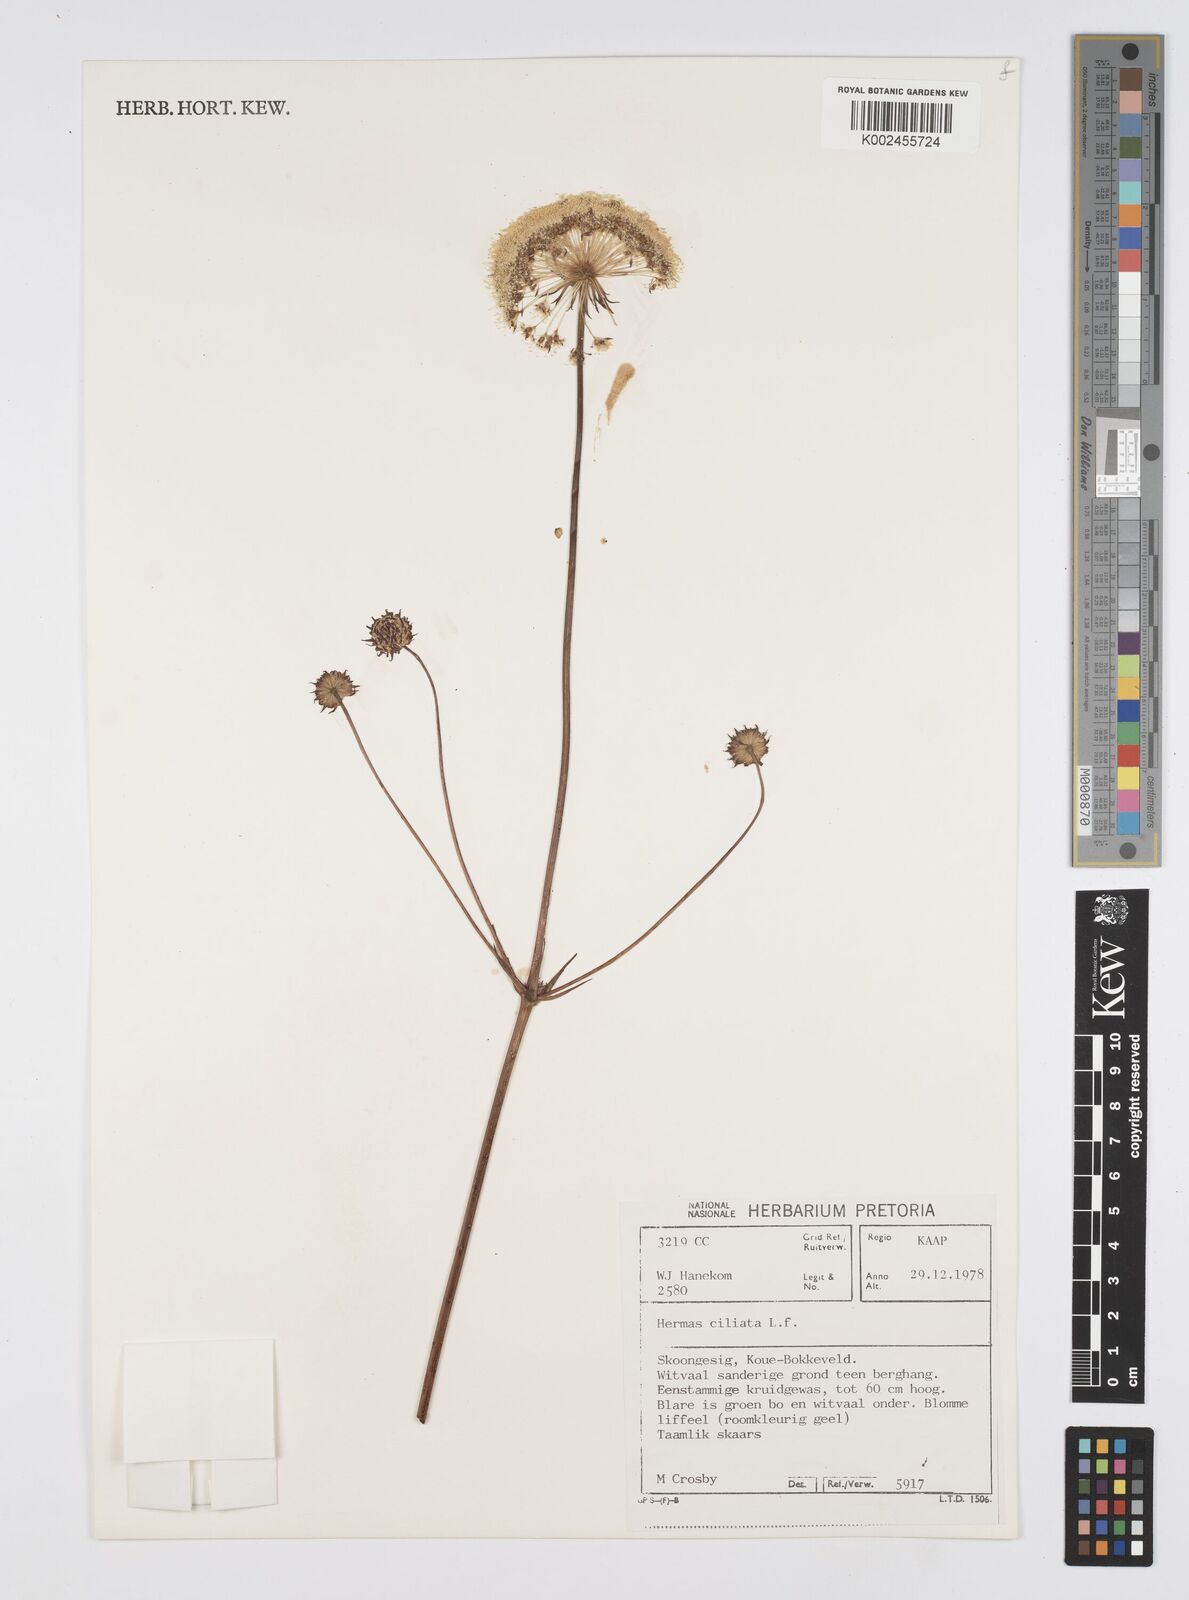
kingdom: Plantae
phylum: Tracheophyta
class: Magnoliopsida
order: Apiales
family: Apiaceae
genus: Hermas
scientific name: Hermas ciliata
